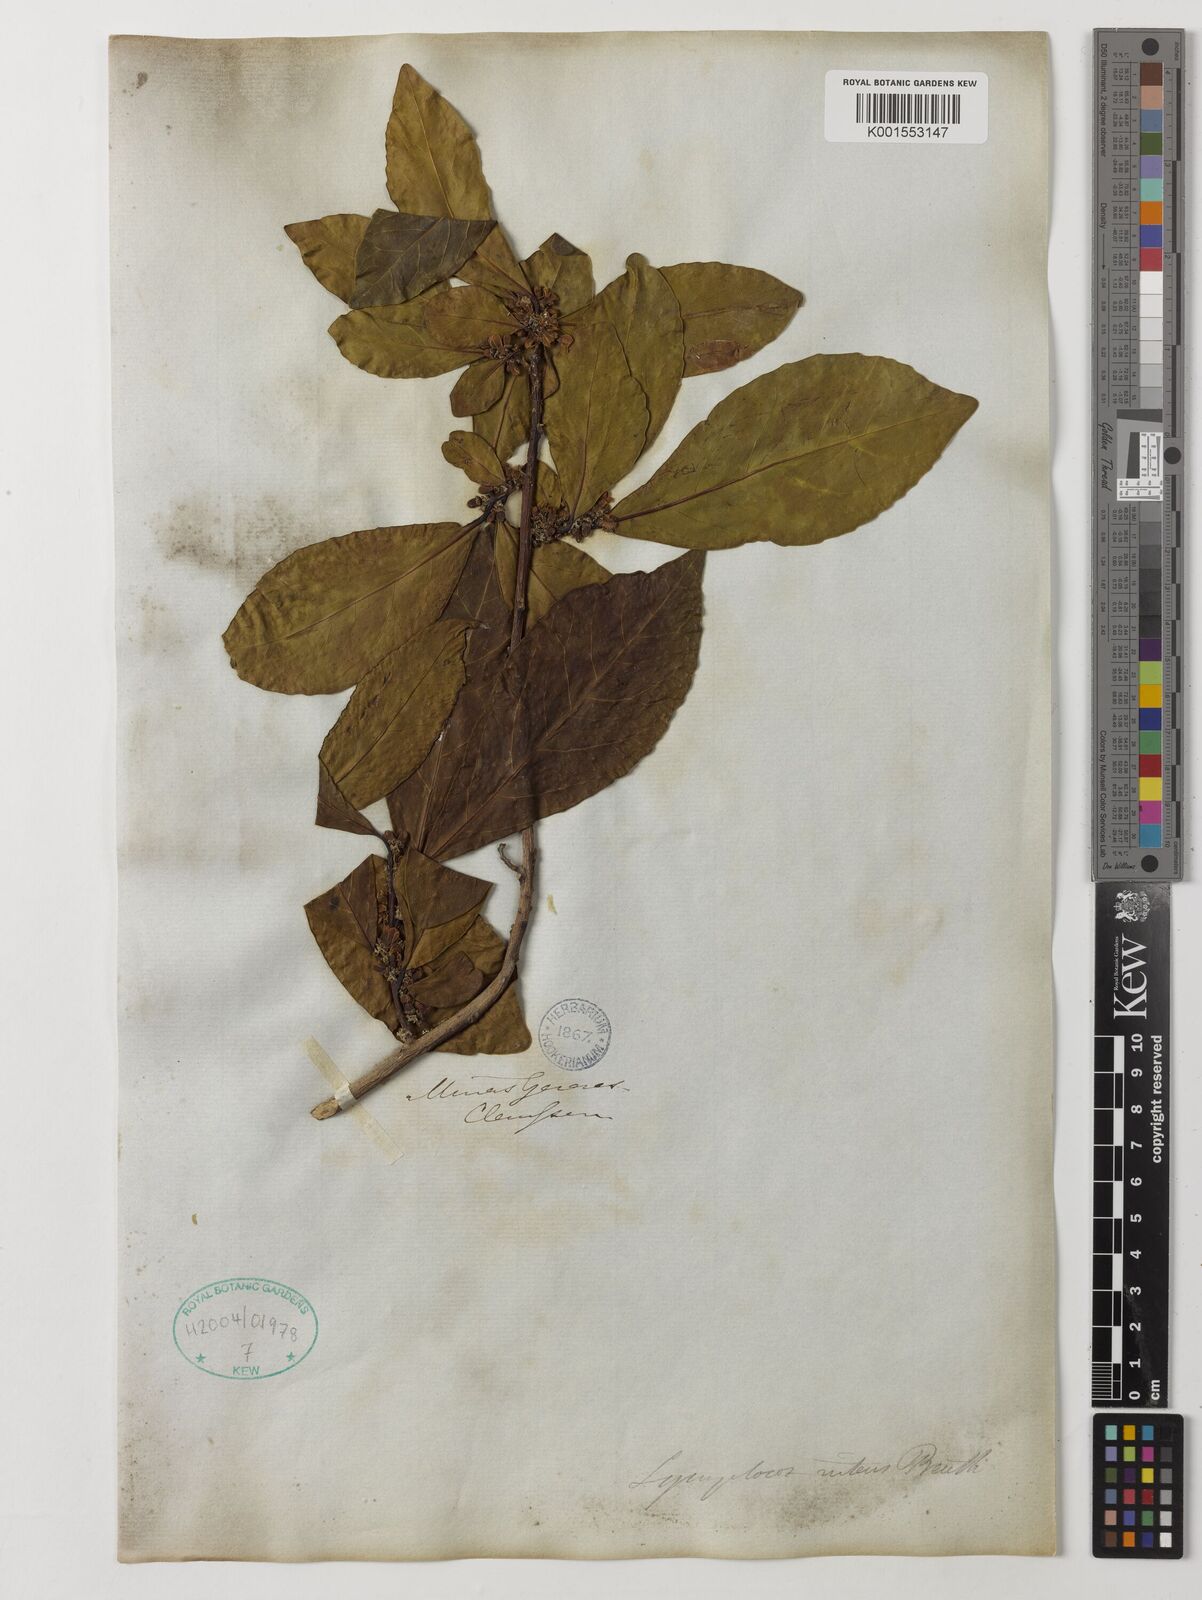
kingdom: Plantae
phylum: Tracheophyta
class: Magnoliopsida
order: Ericales
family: Symplocaceae
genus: Symplocos
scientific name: Symplocos nitens
